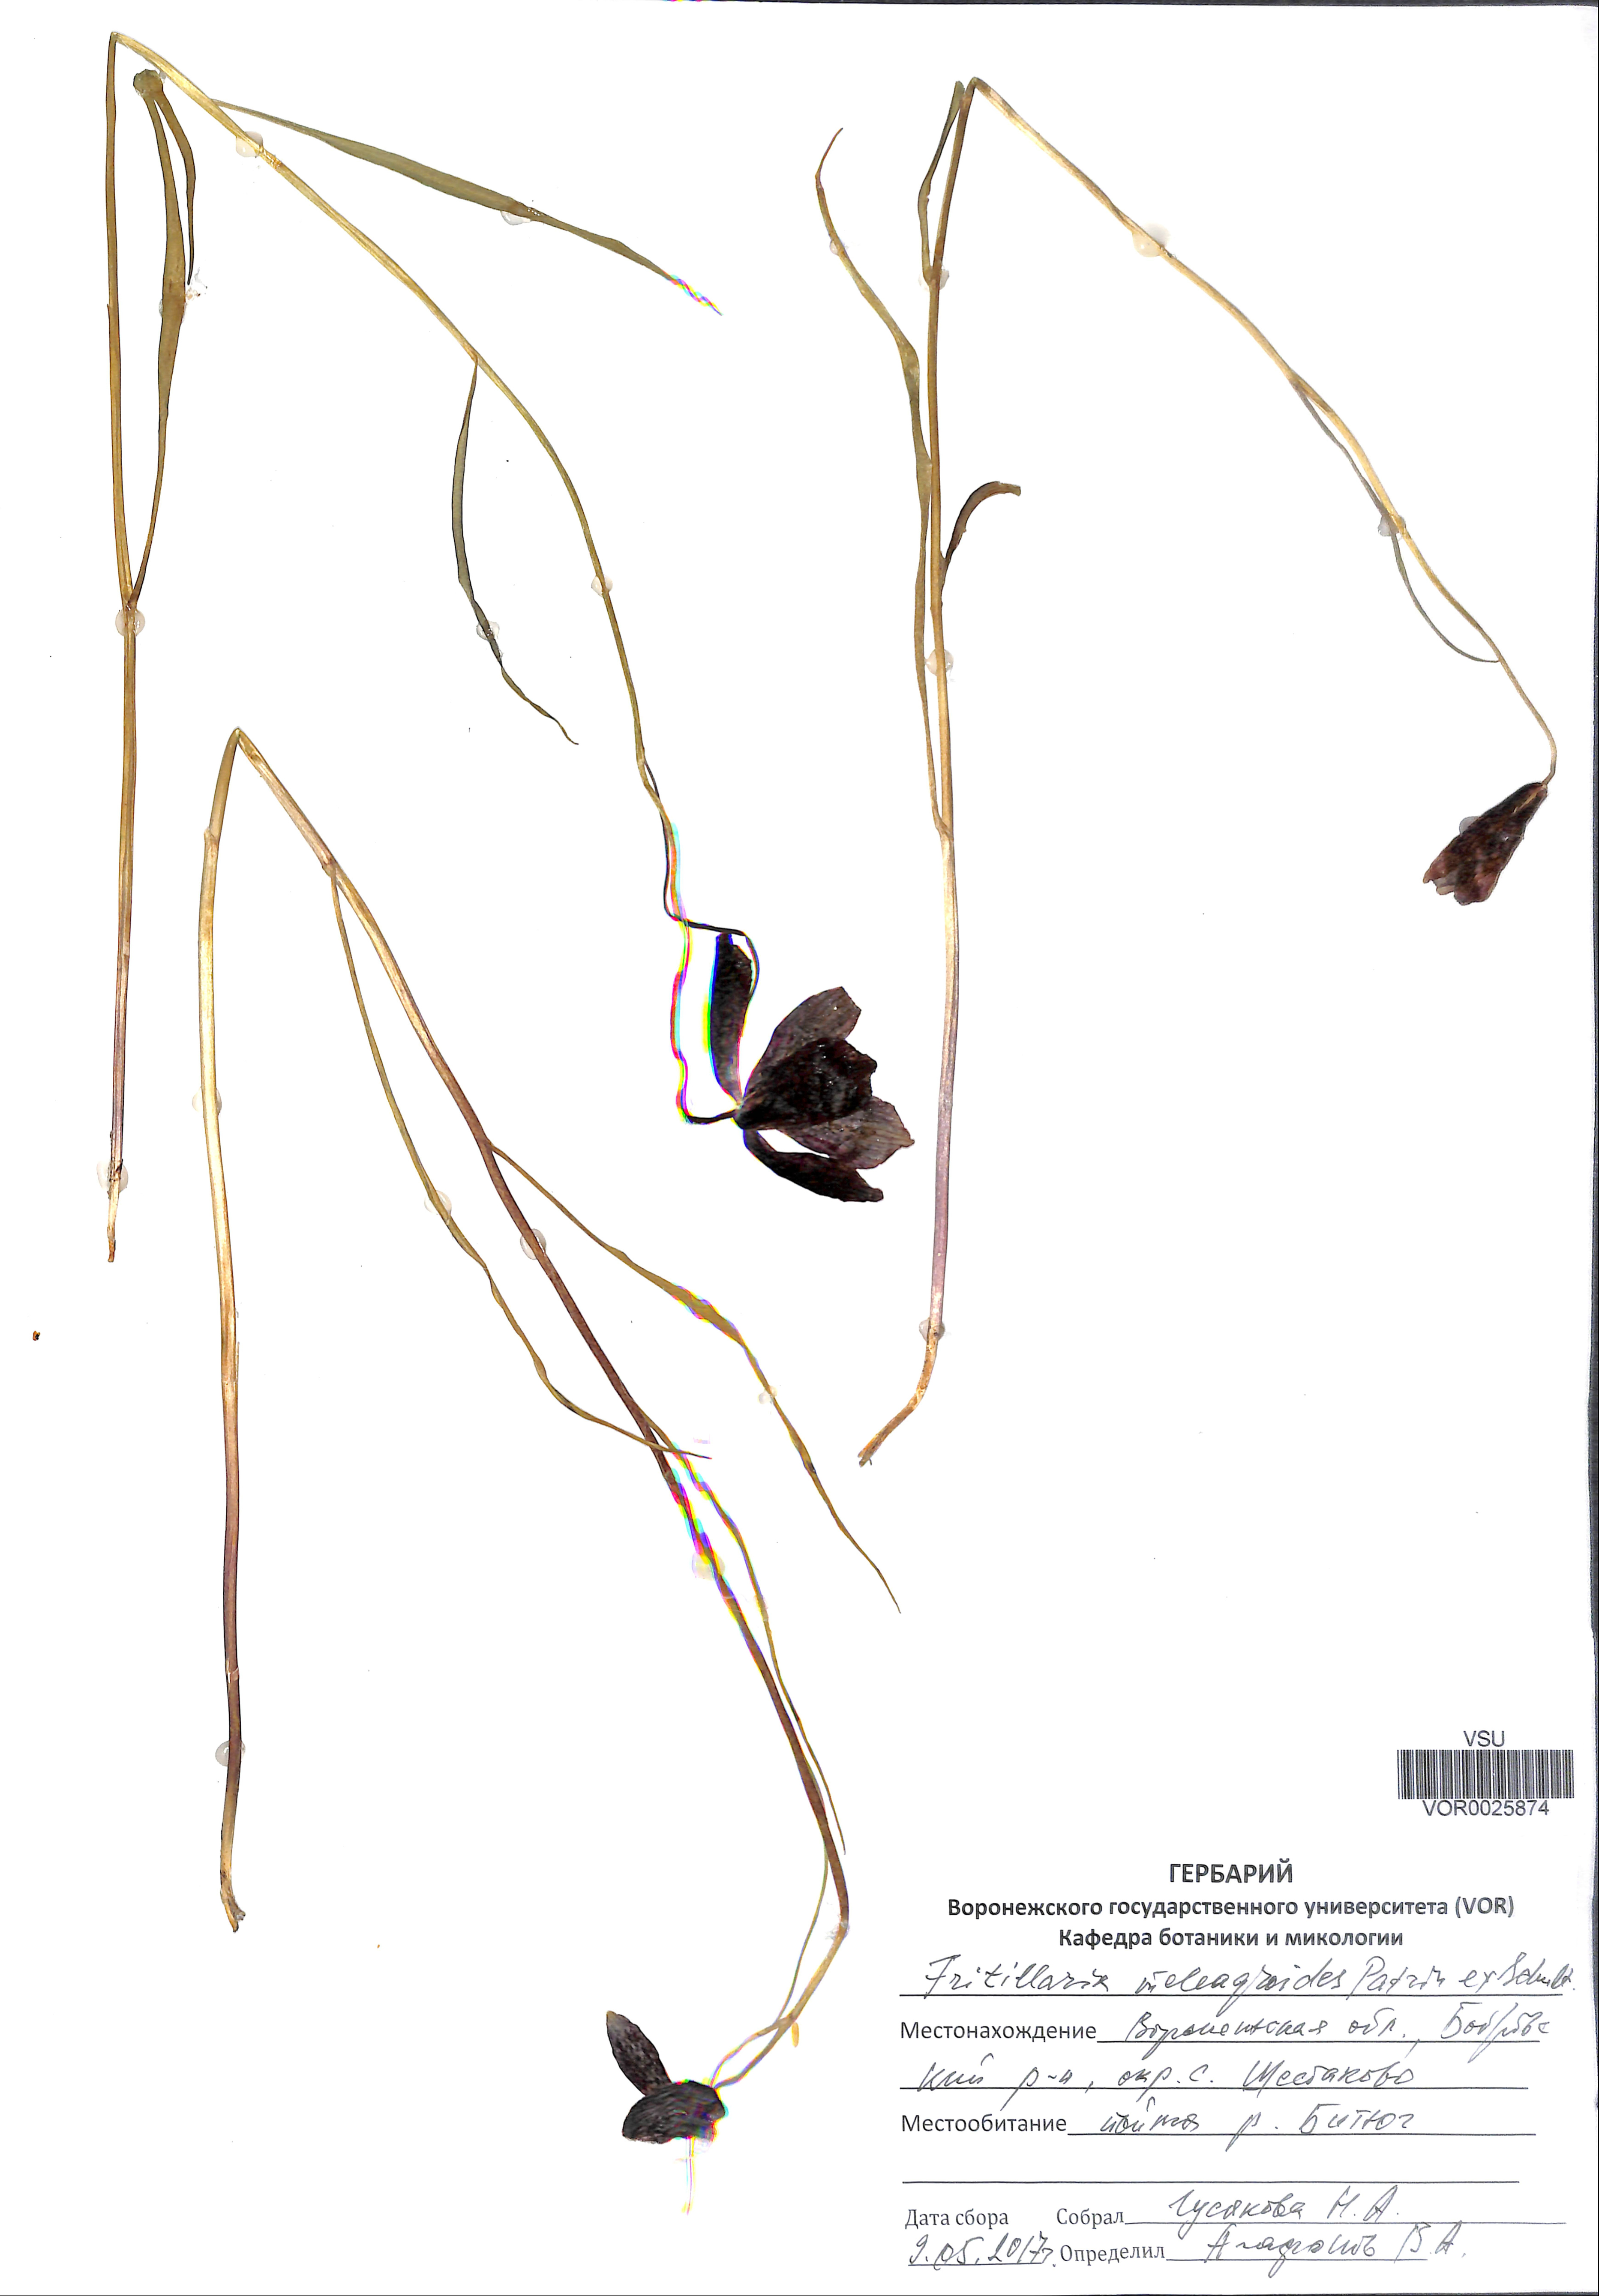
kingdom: Plantae
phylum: Tracheophyta
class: Liliopsida
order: Liliales
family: Liliaceae
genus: Fritillaria
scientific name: Fritillaria meleagroides
